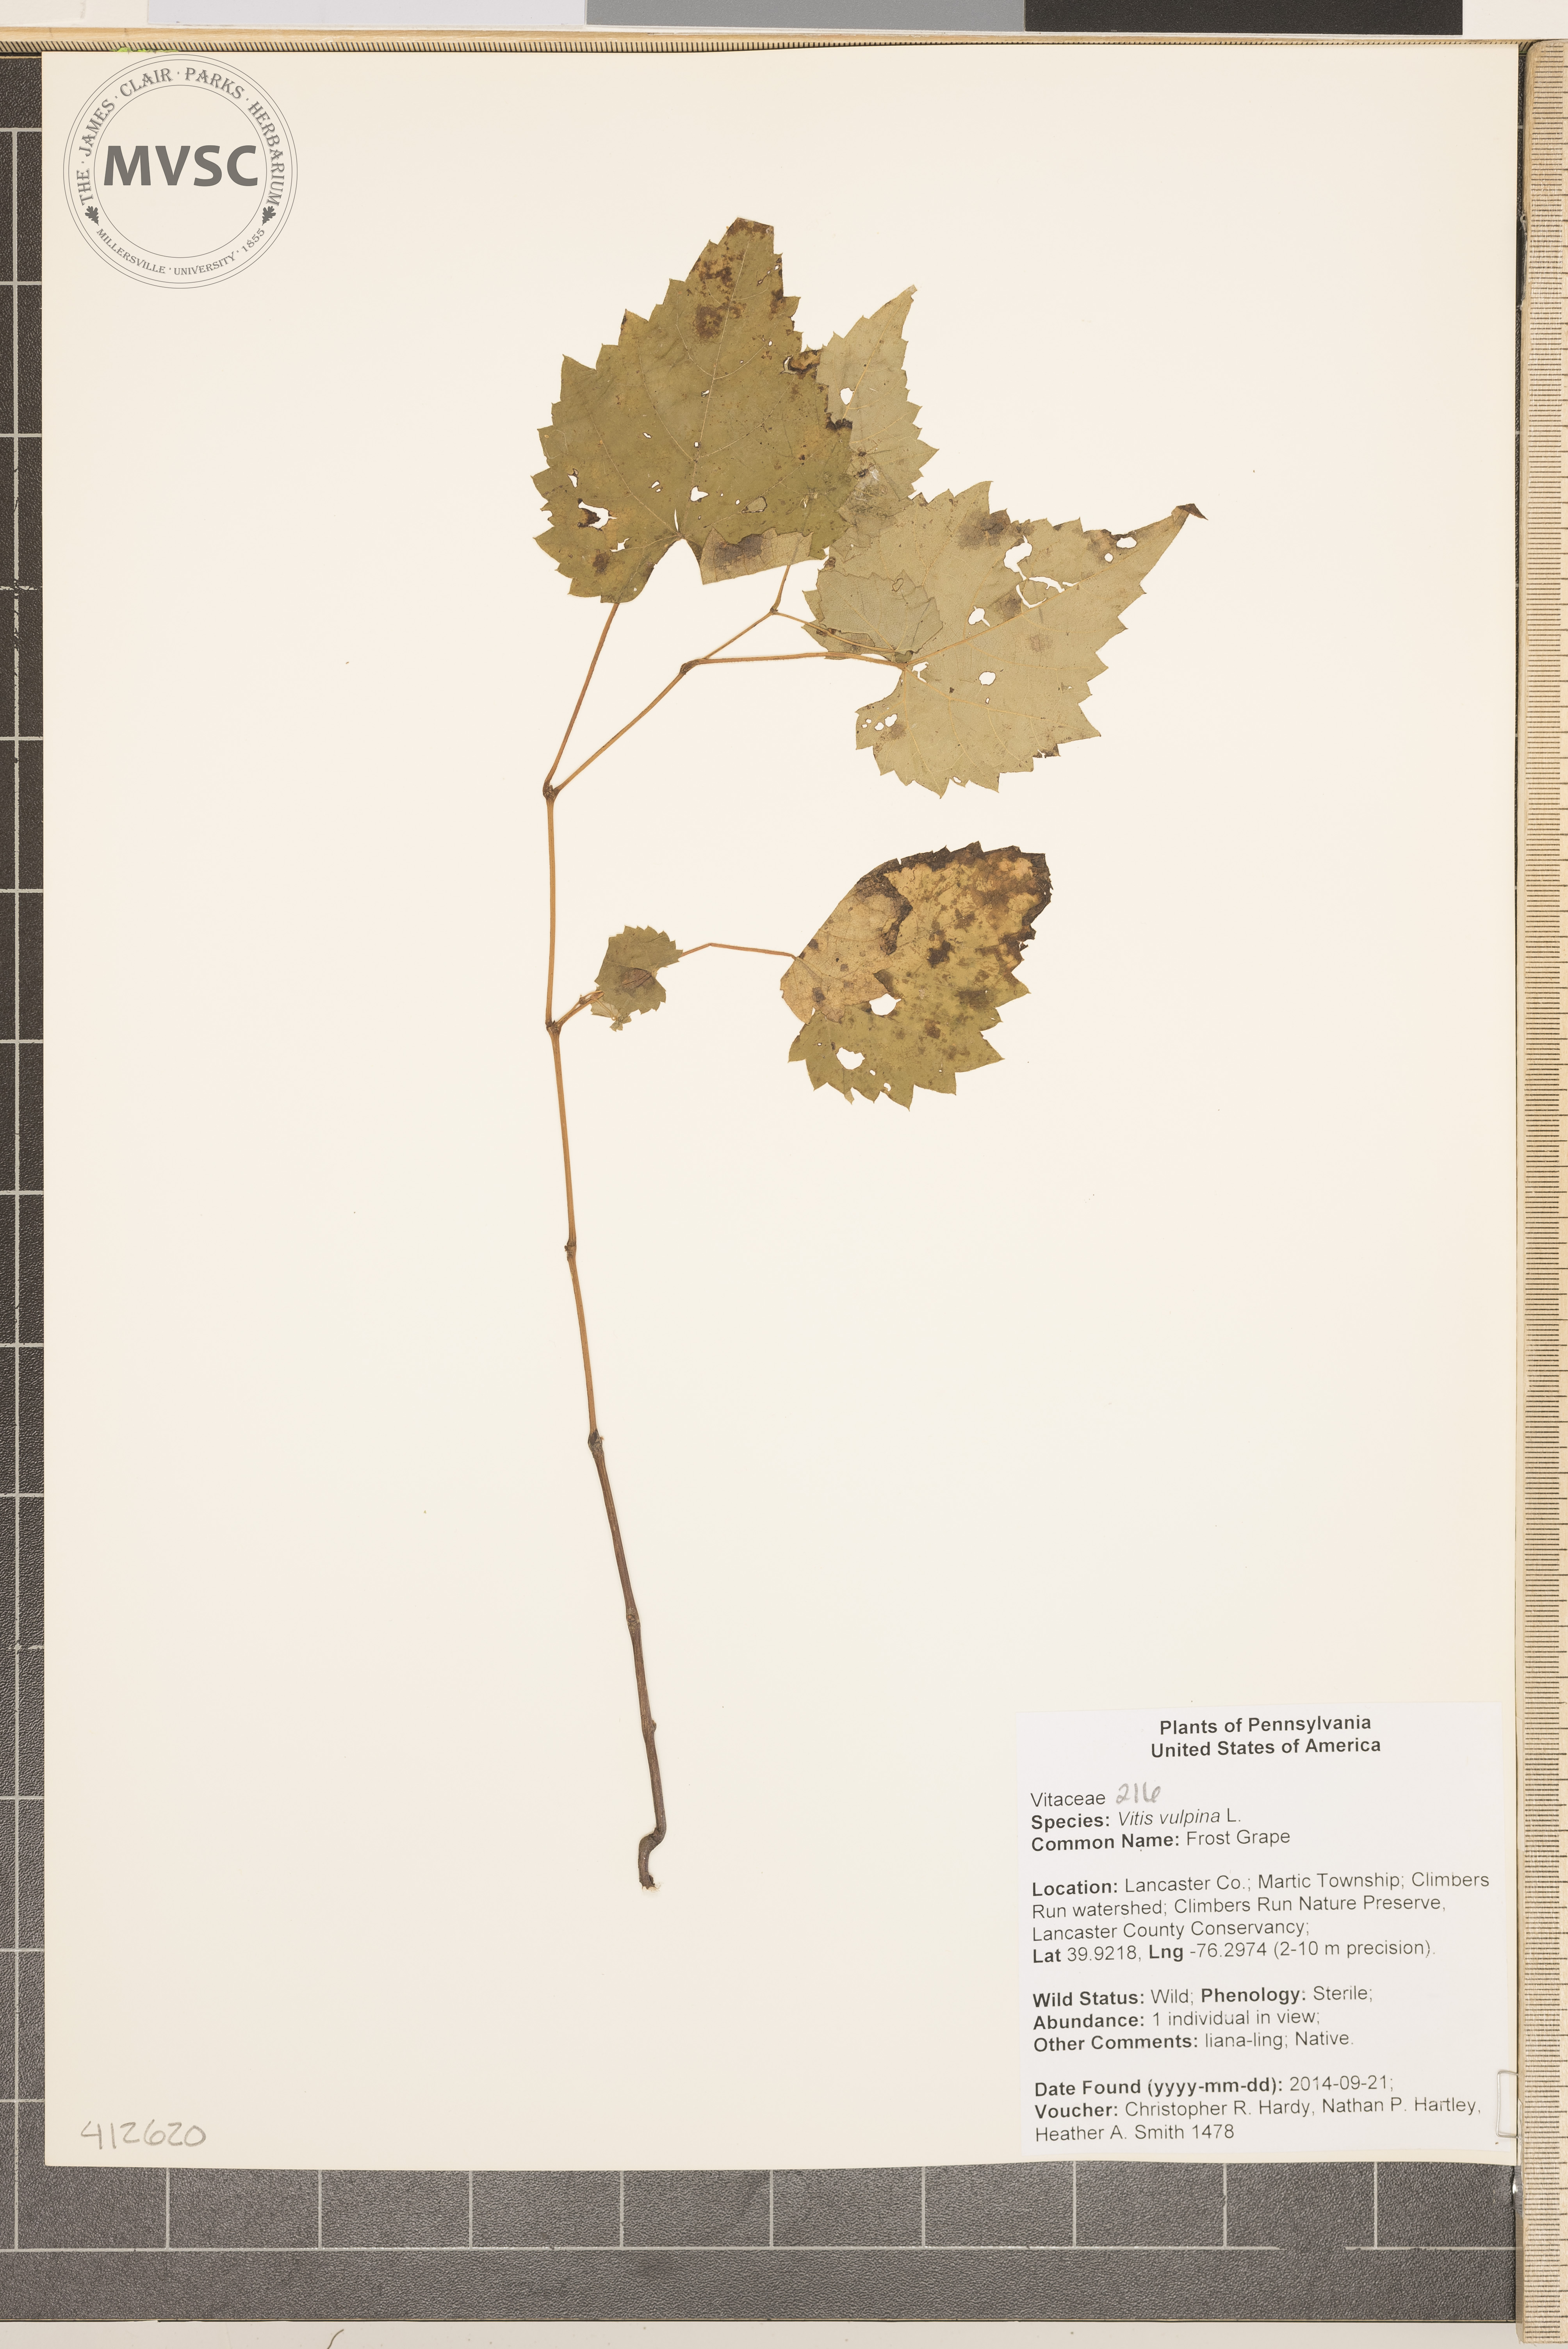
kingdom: Plantae
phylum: Tracheophyta
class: Magnoliopsida
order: Vitales
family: Vitaceae
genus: Vitis
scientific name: Vitis vulpina
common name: frost grape
